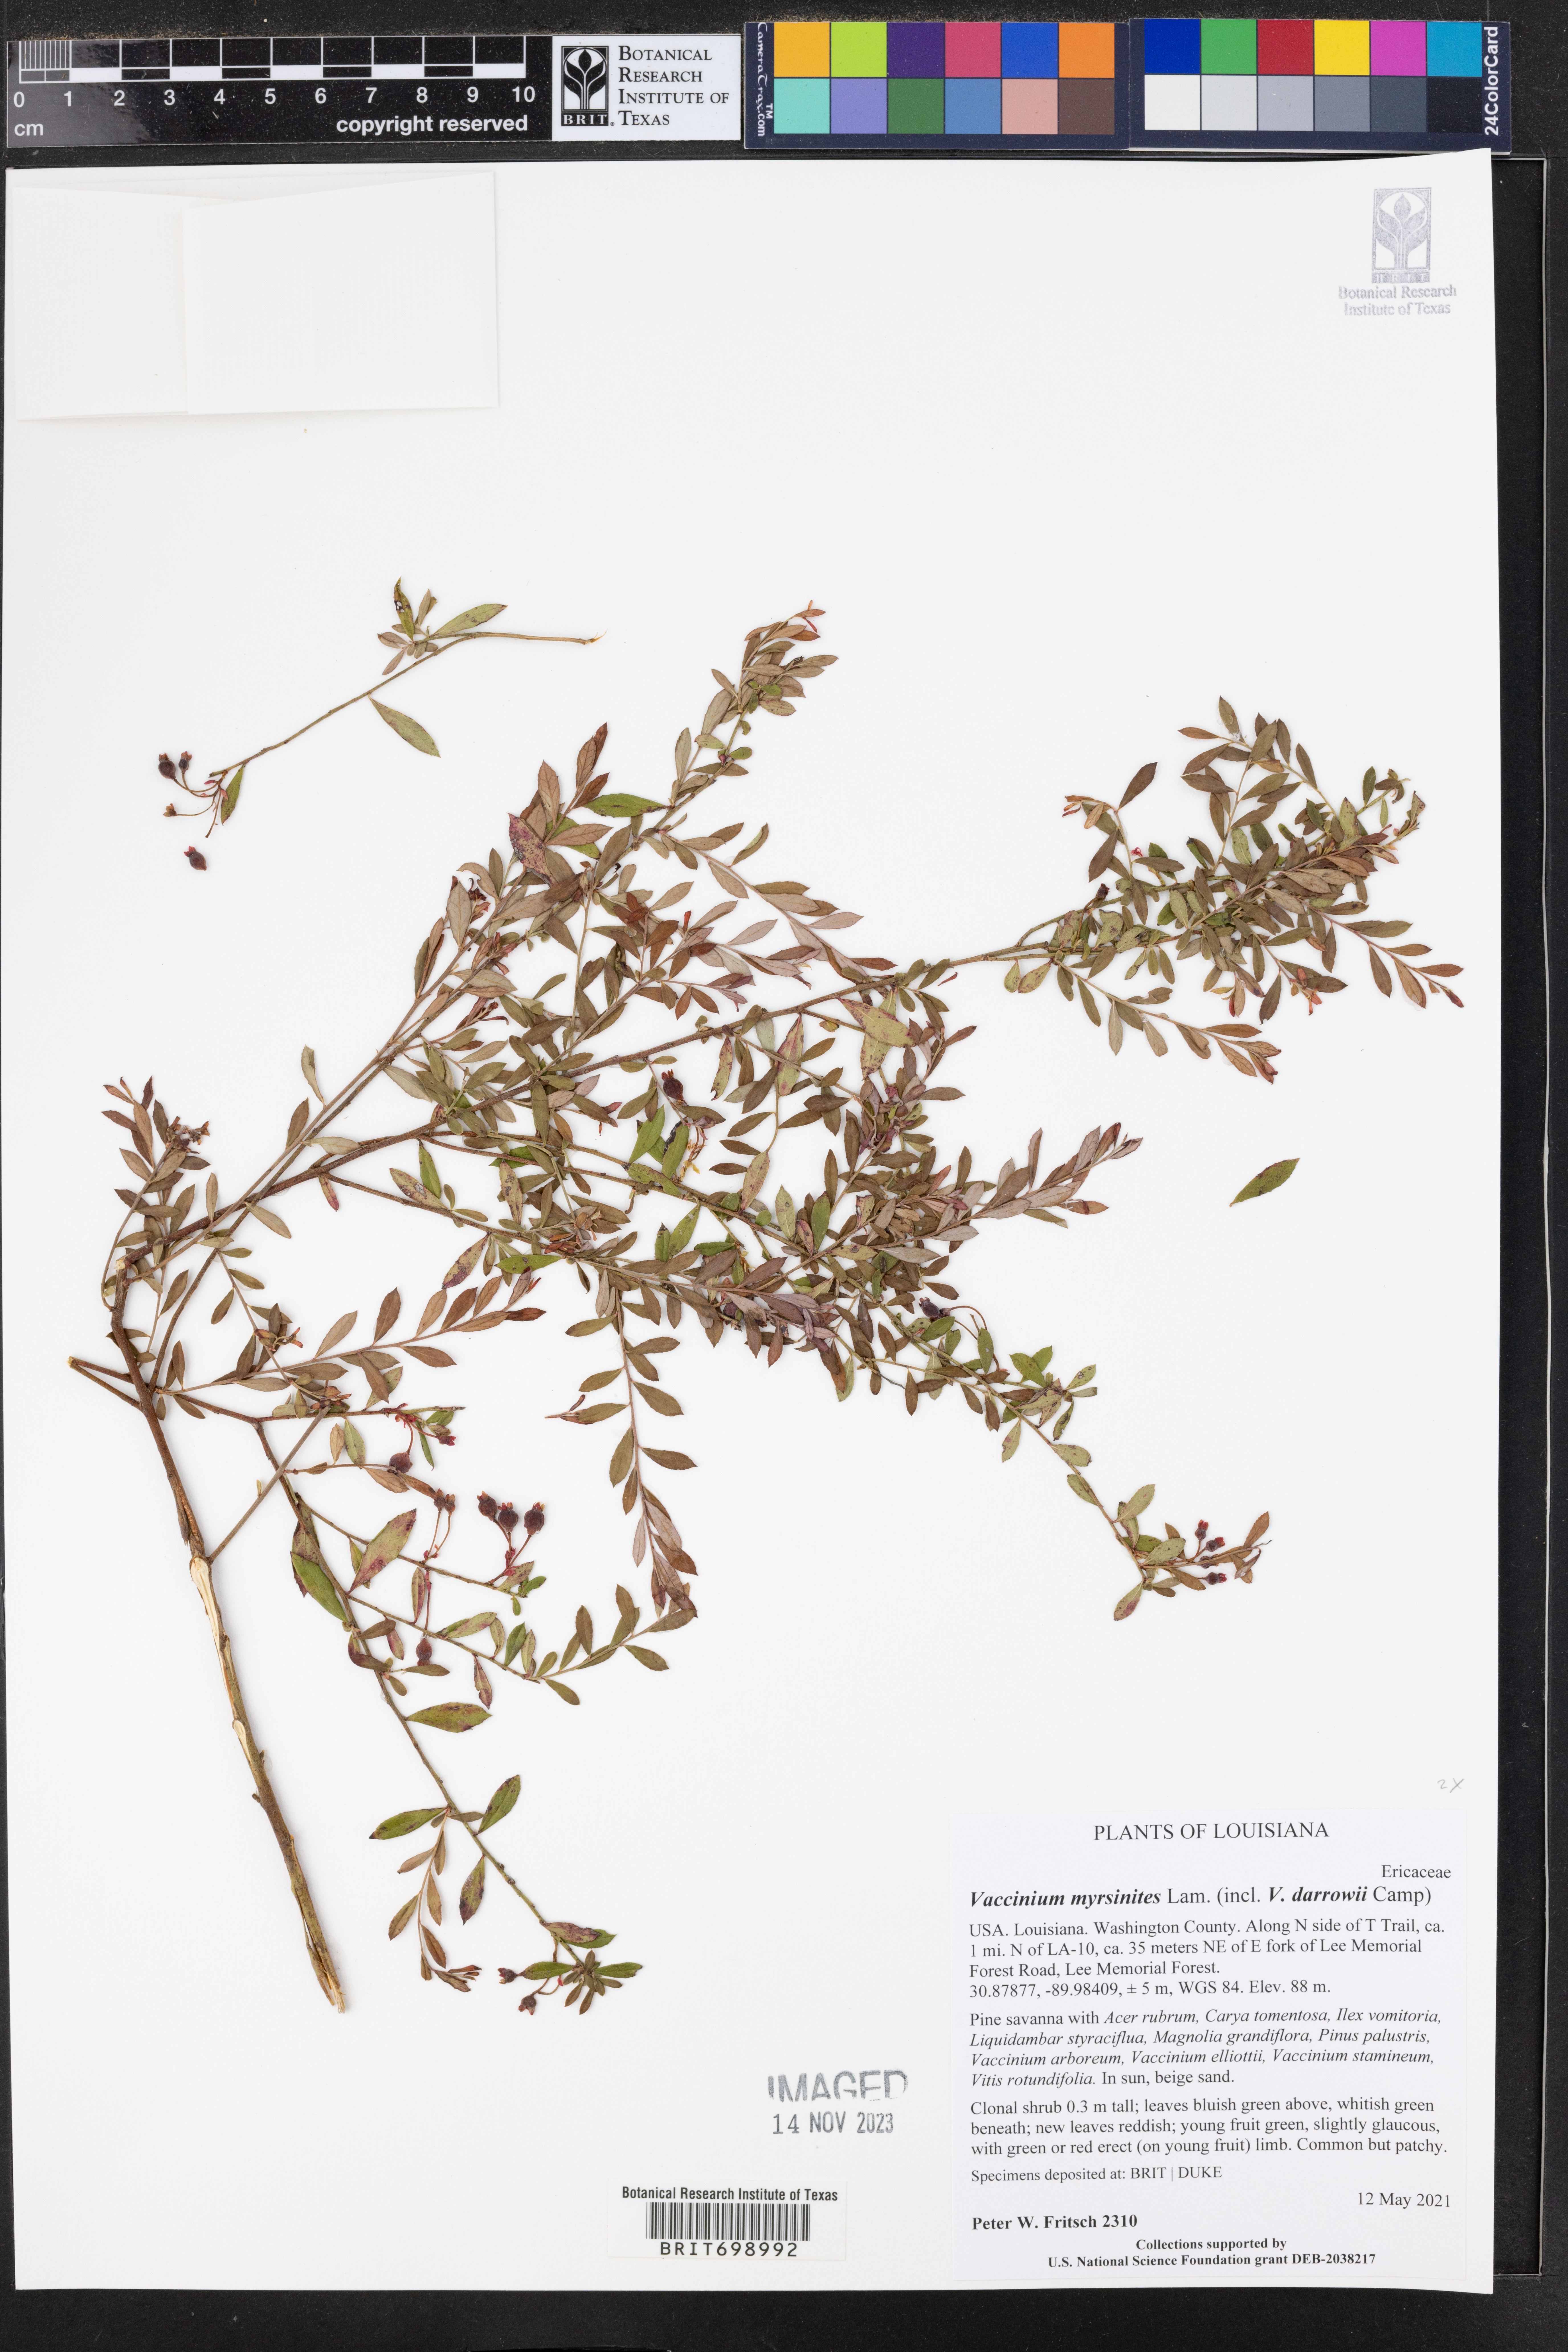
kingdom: Plantae
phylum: Tracheophyta
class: Magnoliopsida
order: Ericales
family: Ericaceae
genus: Vaccinium
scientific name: Vaccinium myrsinites
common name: Evergreen blueberry
